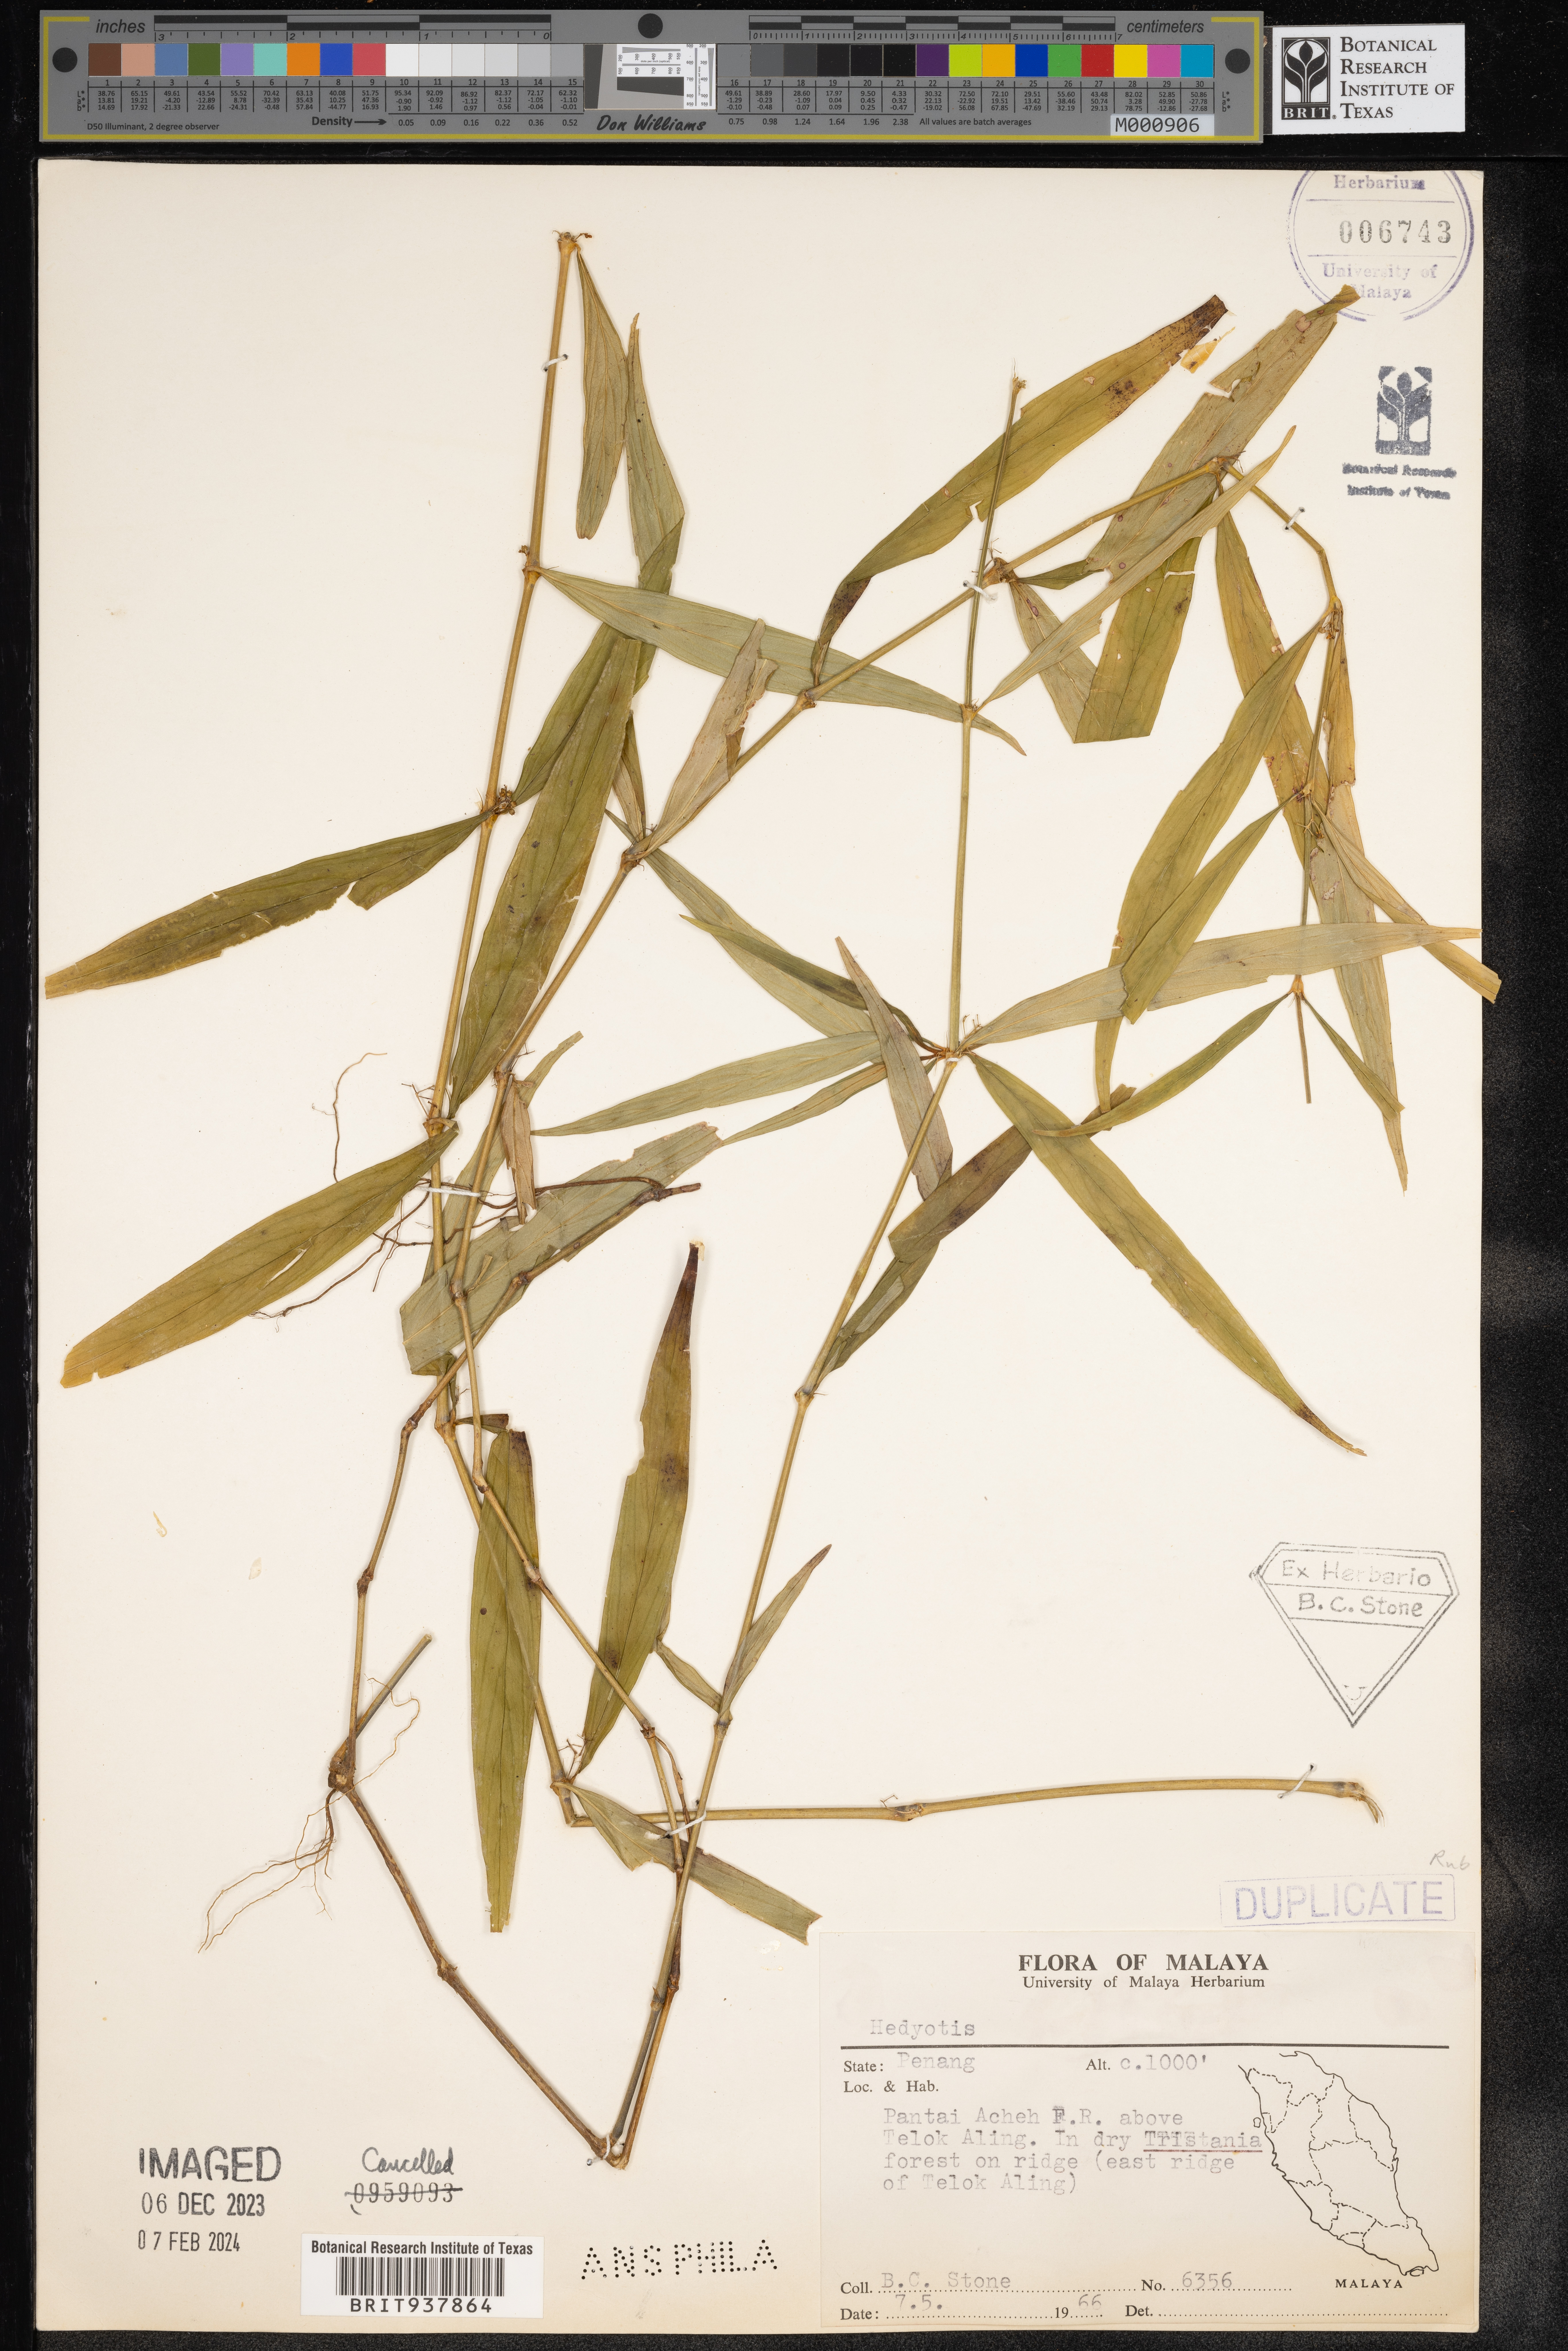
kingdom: Plantae
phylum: Tracheophyta
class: Magnoliopsida
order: Gentianales
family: Rubiaceae
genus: Hedyotis
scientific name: Hedyotis
